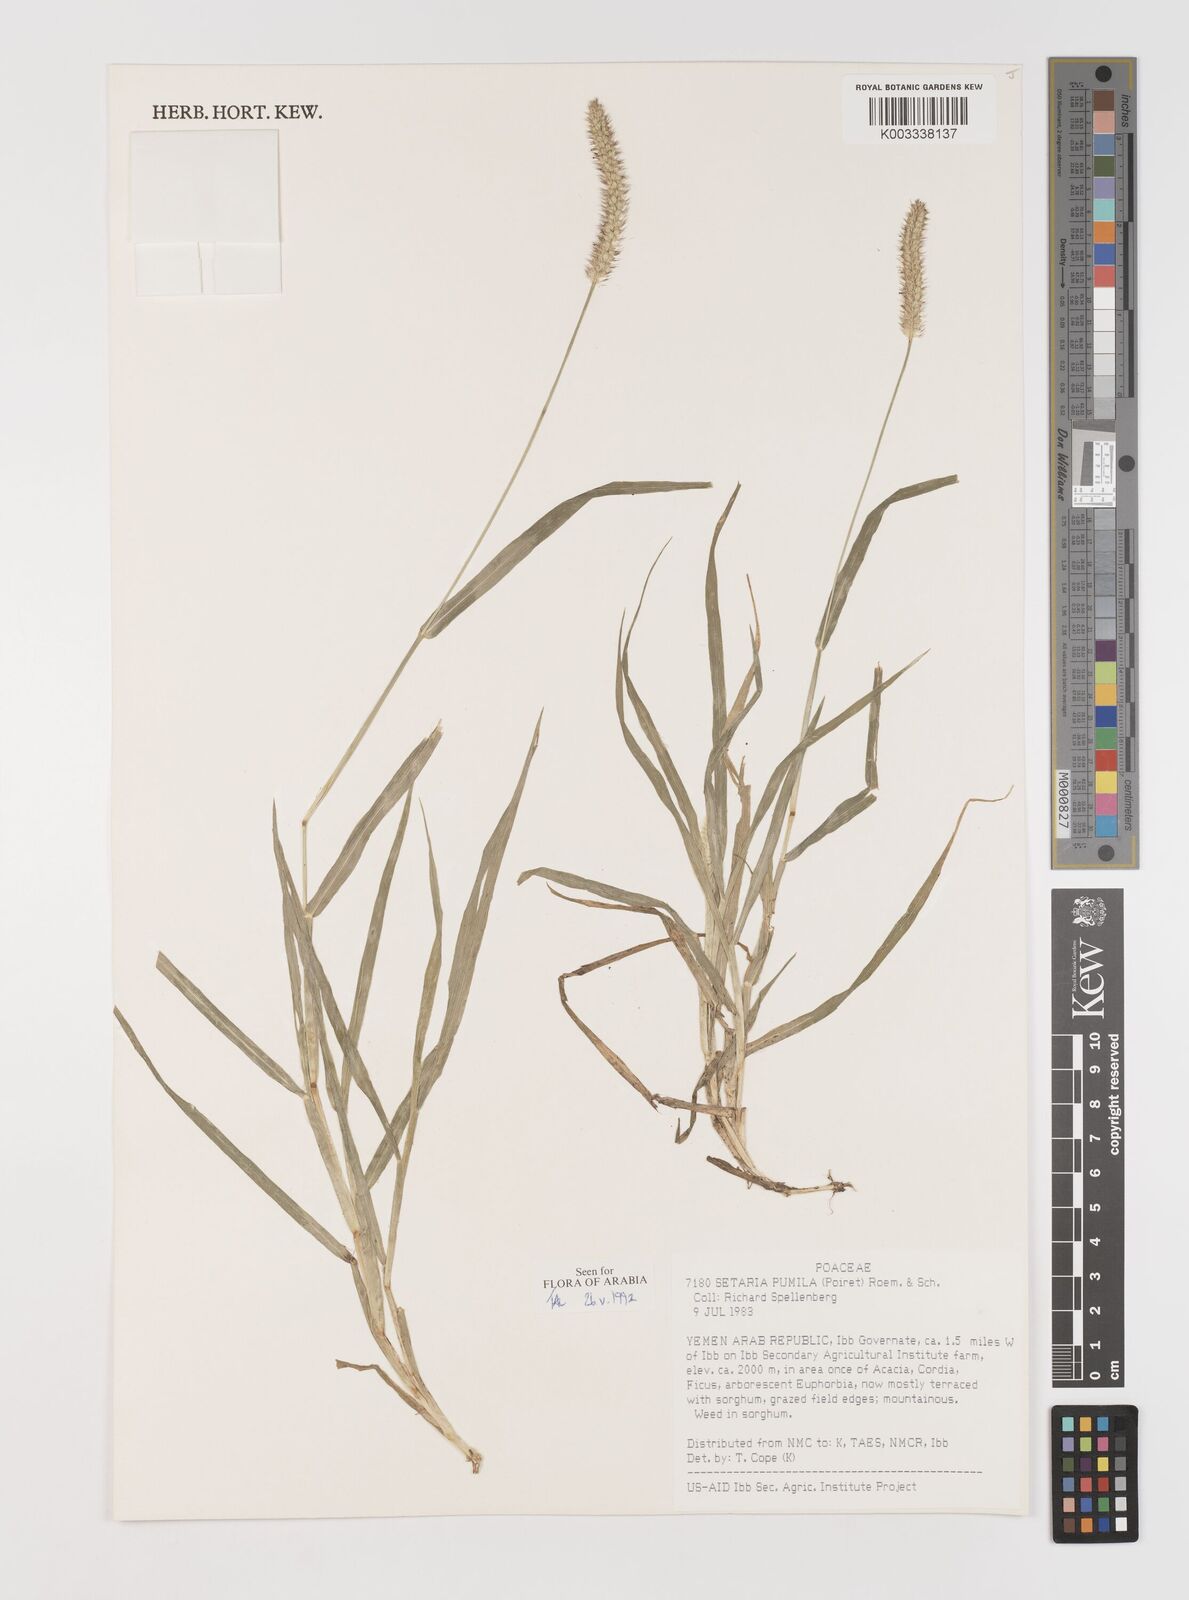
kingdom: Plantae
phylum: Tracheophyta
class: Liliopsida
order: Poales
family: Poaceae
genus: Setaria
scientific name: Setaria pumila
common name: Yellow bristle-grass
